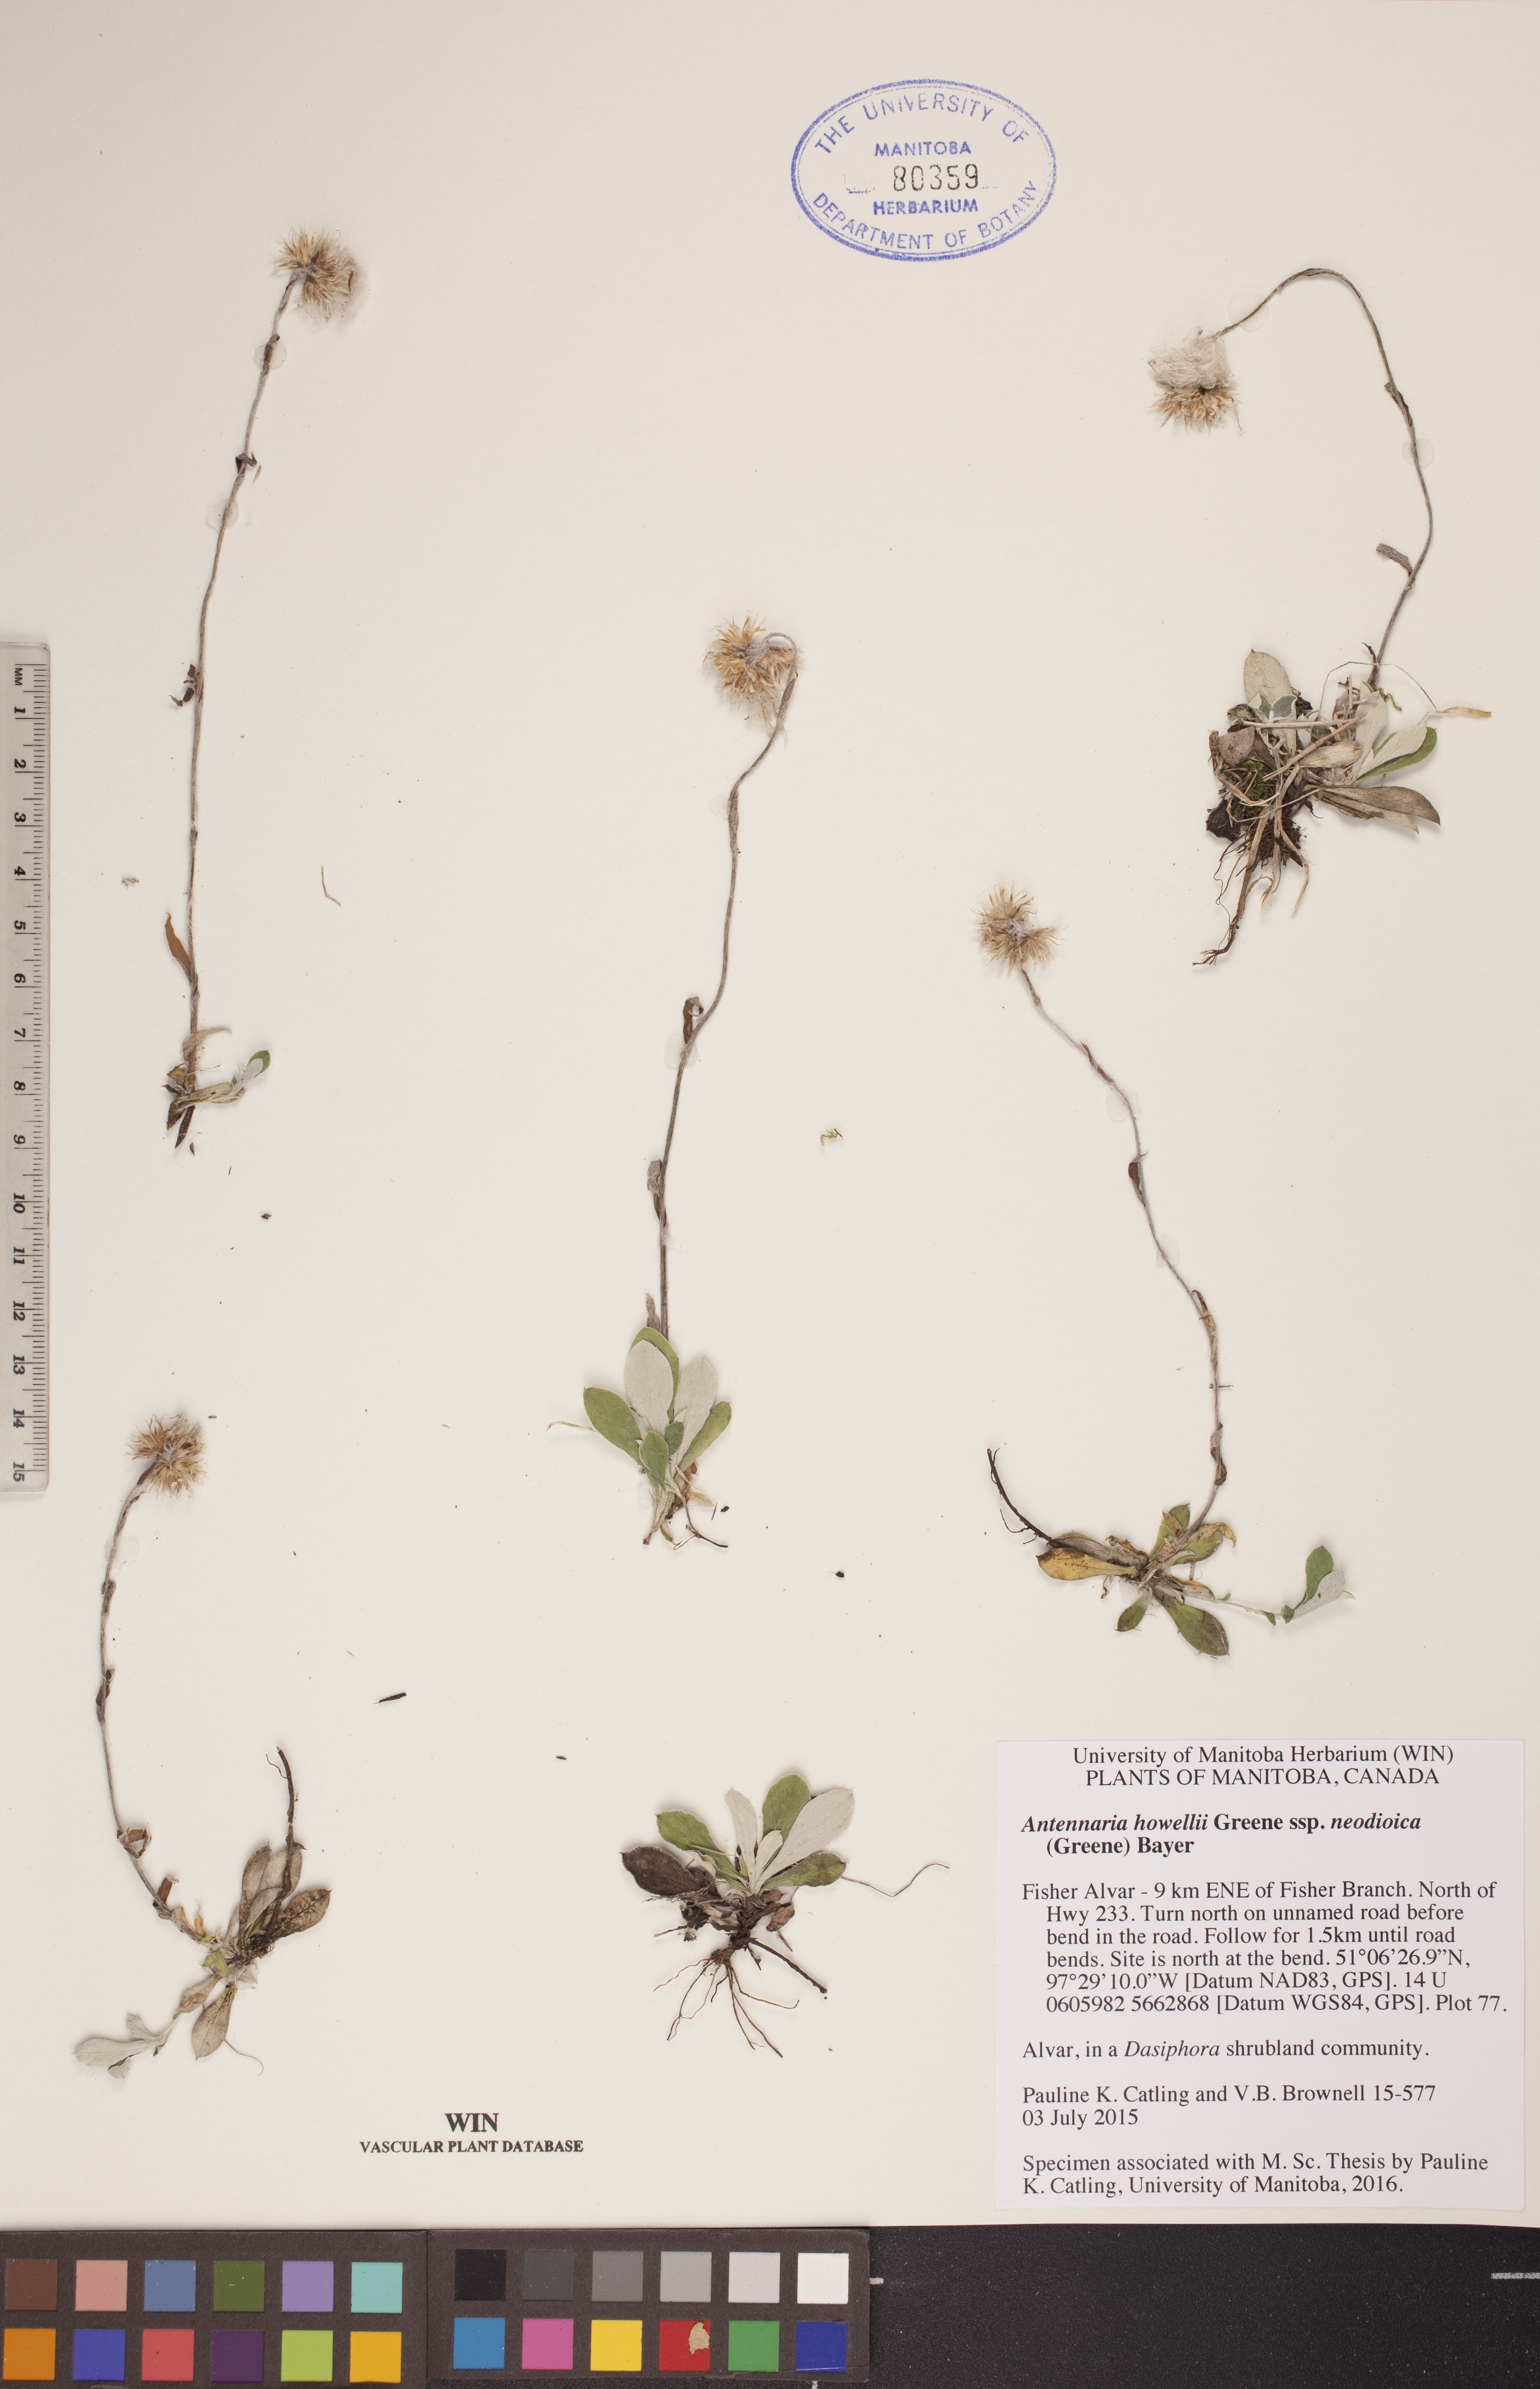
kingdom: Plantae
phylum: Tracheophyta
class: Magnoliopsida
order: Asterales
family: Asteraceae
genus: Antennaria
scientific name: Antennaria howellii
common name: Howell's pussytoes
